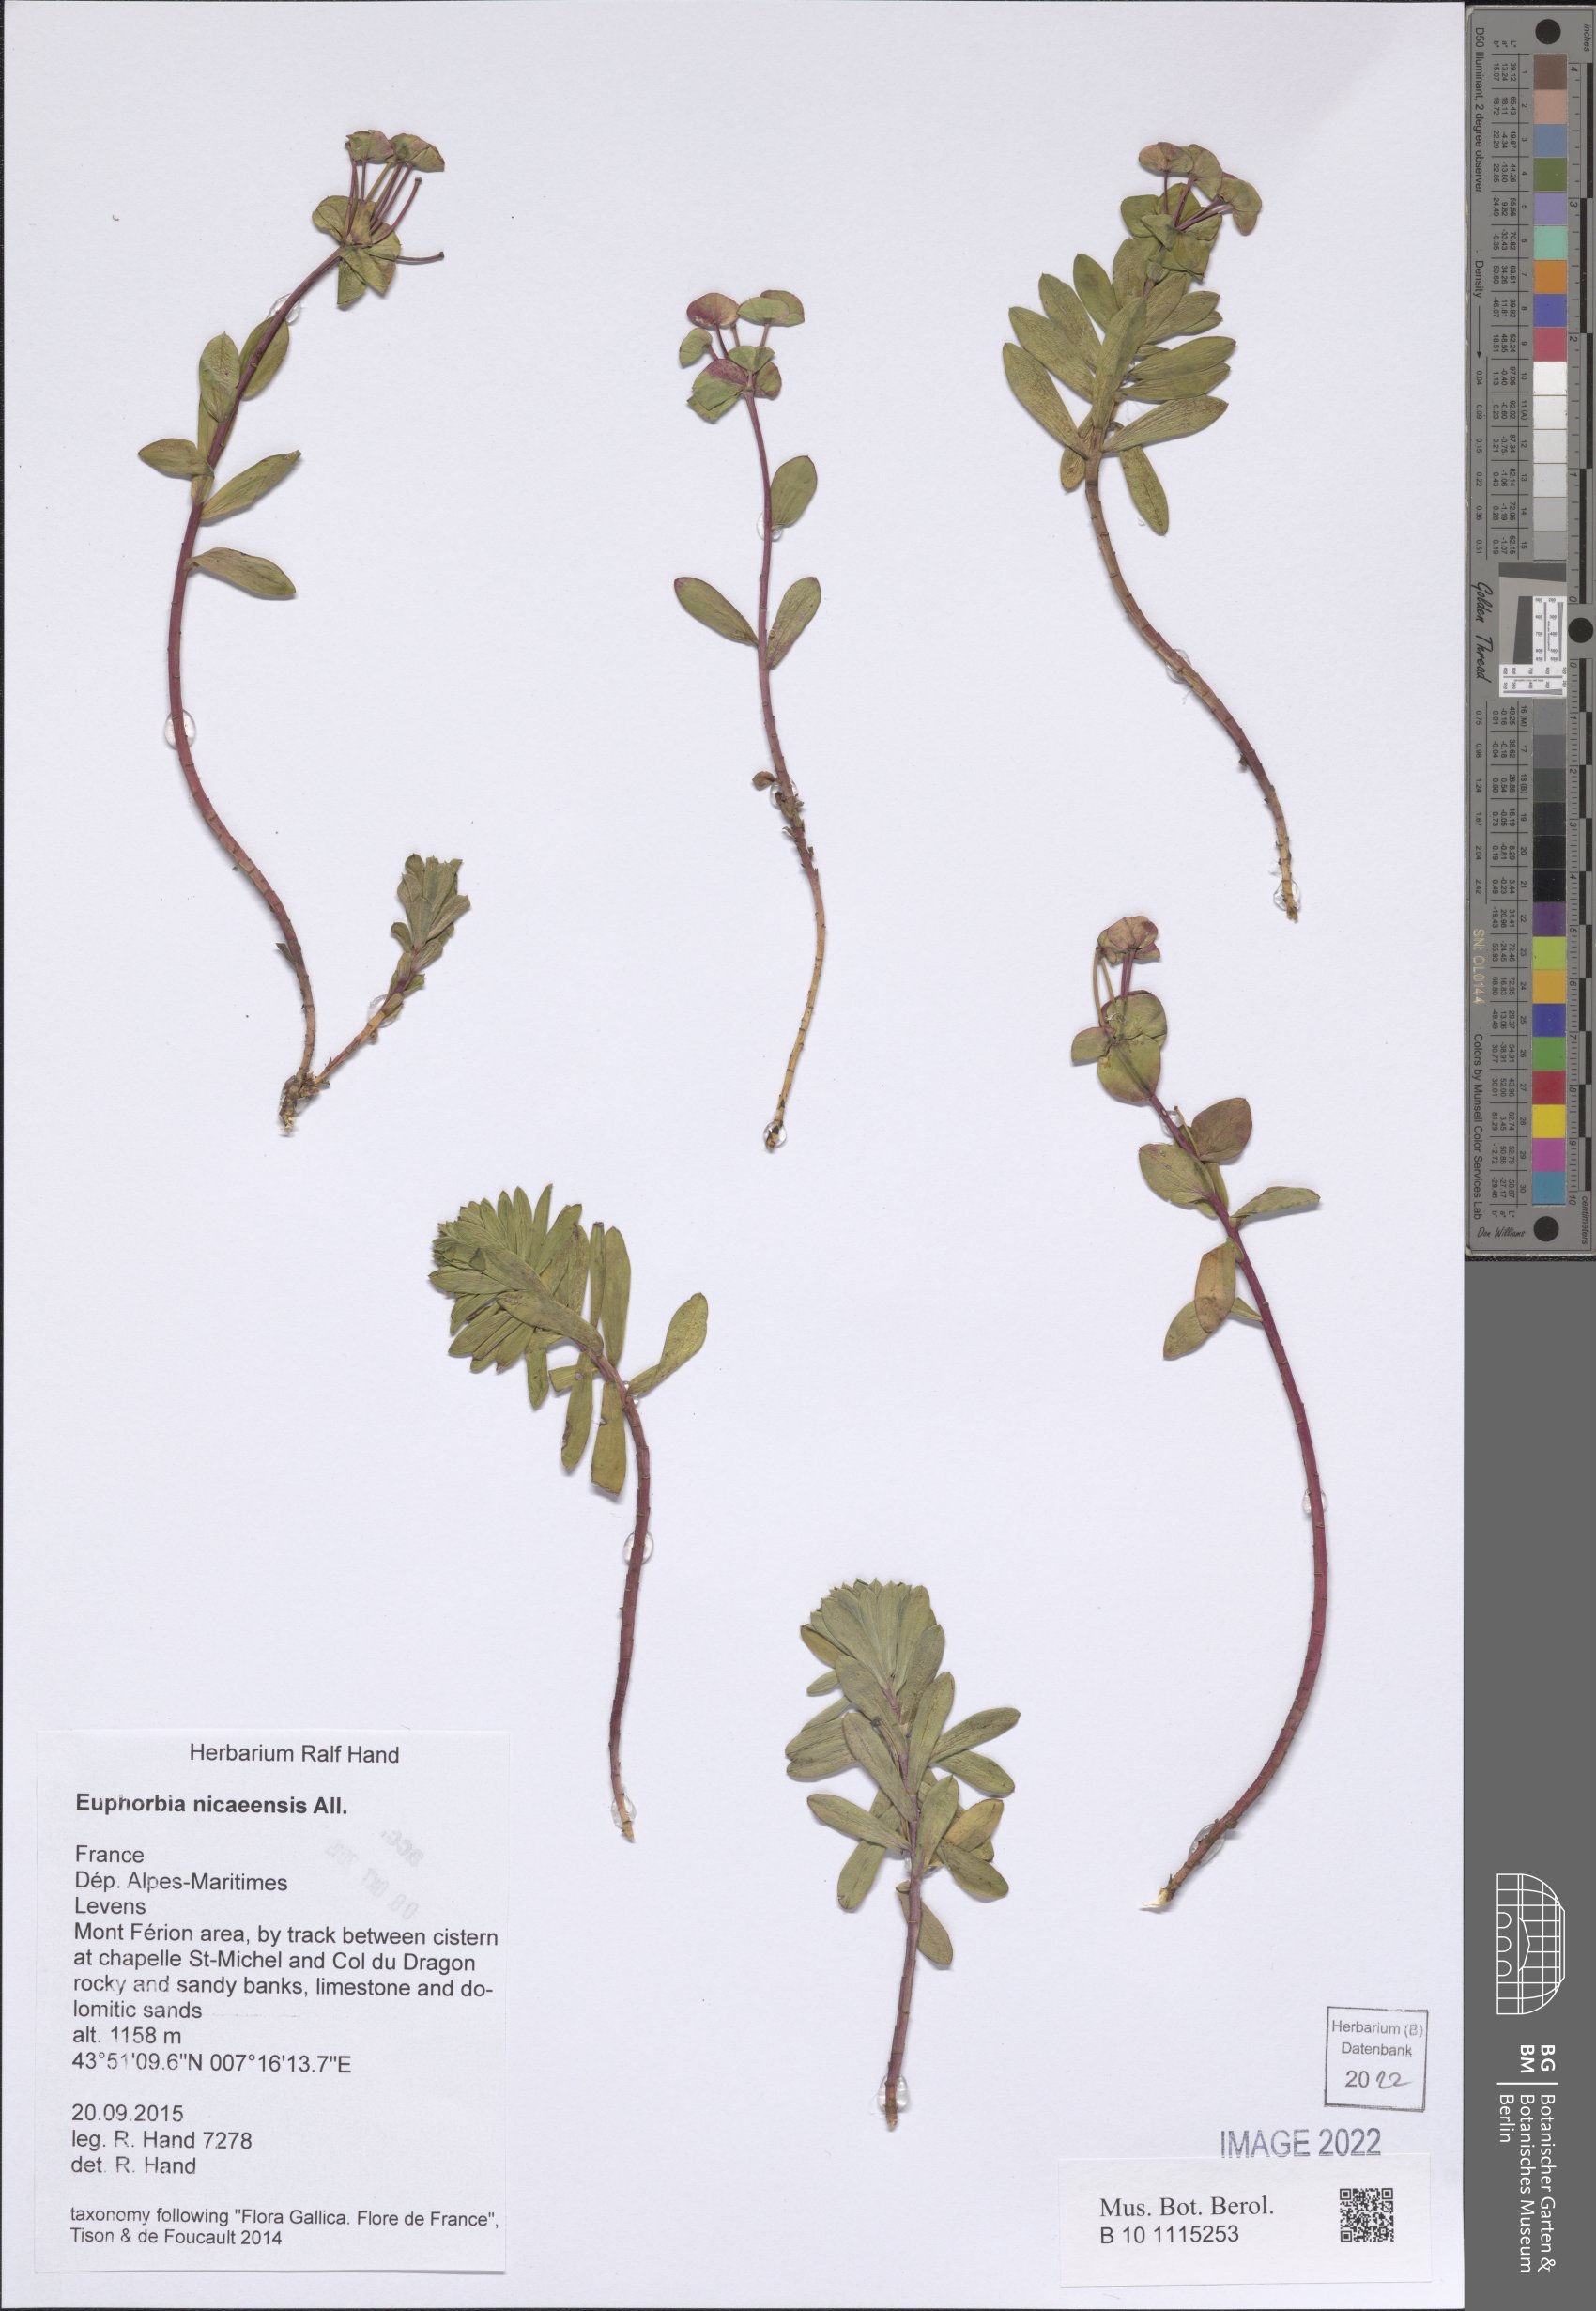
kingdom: Plantae
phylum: Tracheophyta
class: Magnoliopsida
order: Malpighiales
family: Euphorbiaceae
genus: Euphorbia
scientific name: Euphorbia nicaeensis
